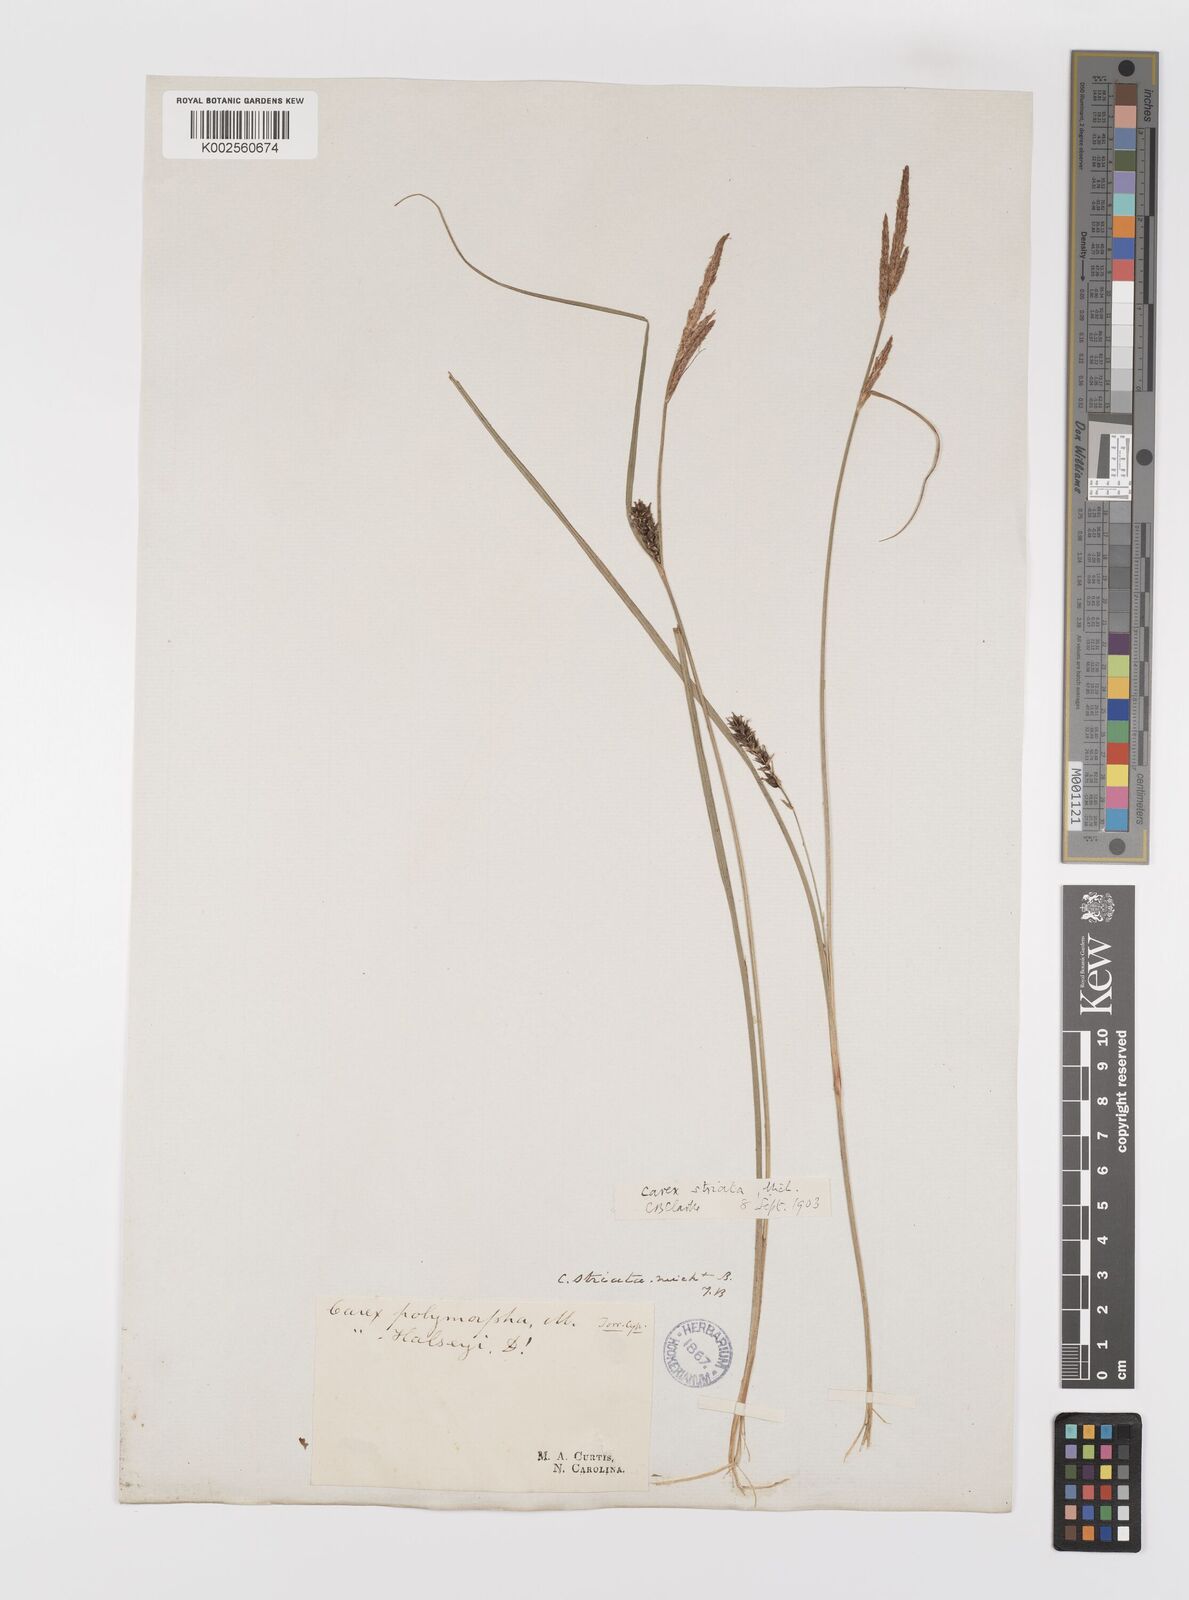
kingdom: Plantae
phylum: Tracheophyta
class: Liliopsida
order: Poales
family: Cyperaceae
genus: Carex
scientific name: Carex striata
